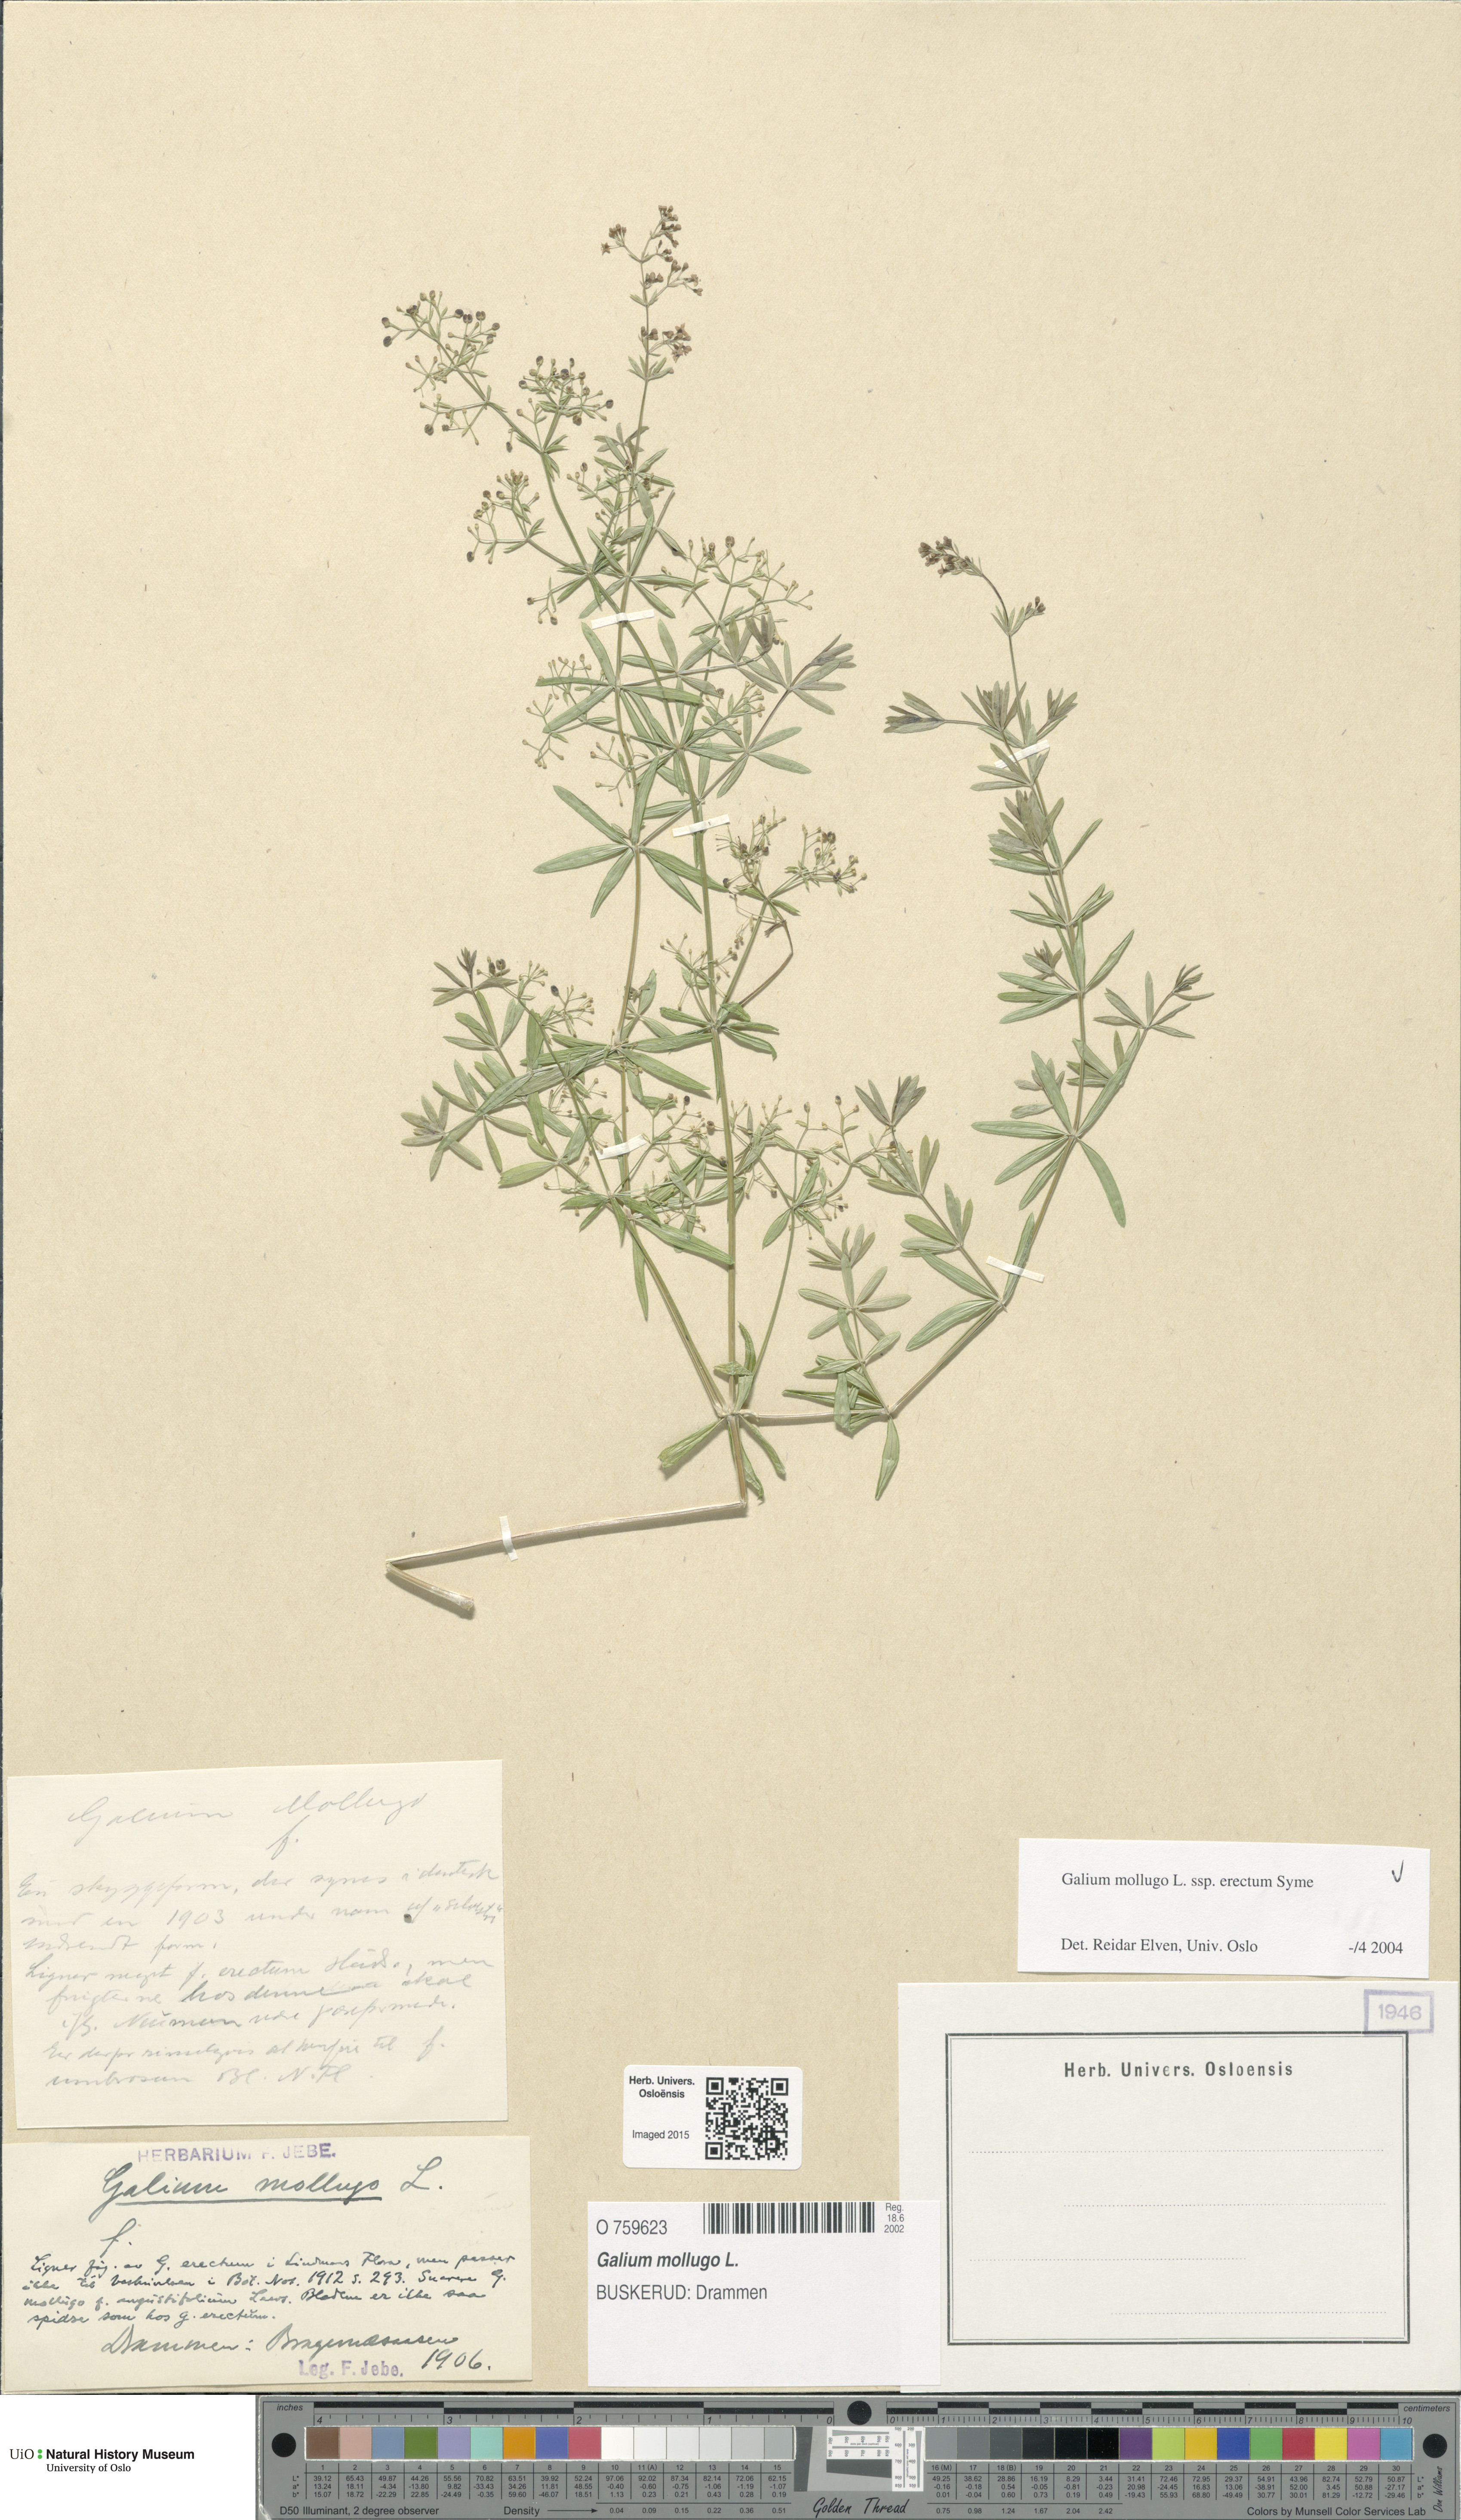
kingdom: Plantae
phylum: Tracheophyta
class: Magnoliopsida
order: Gentianales
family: Rubiaceae
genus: Galium
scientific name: Galium album
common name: White bedstraw
